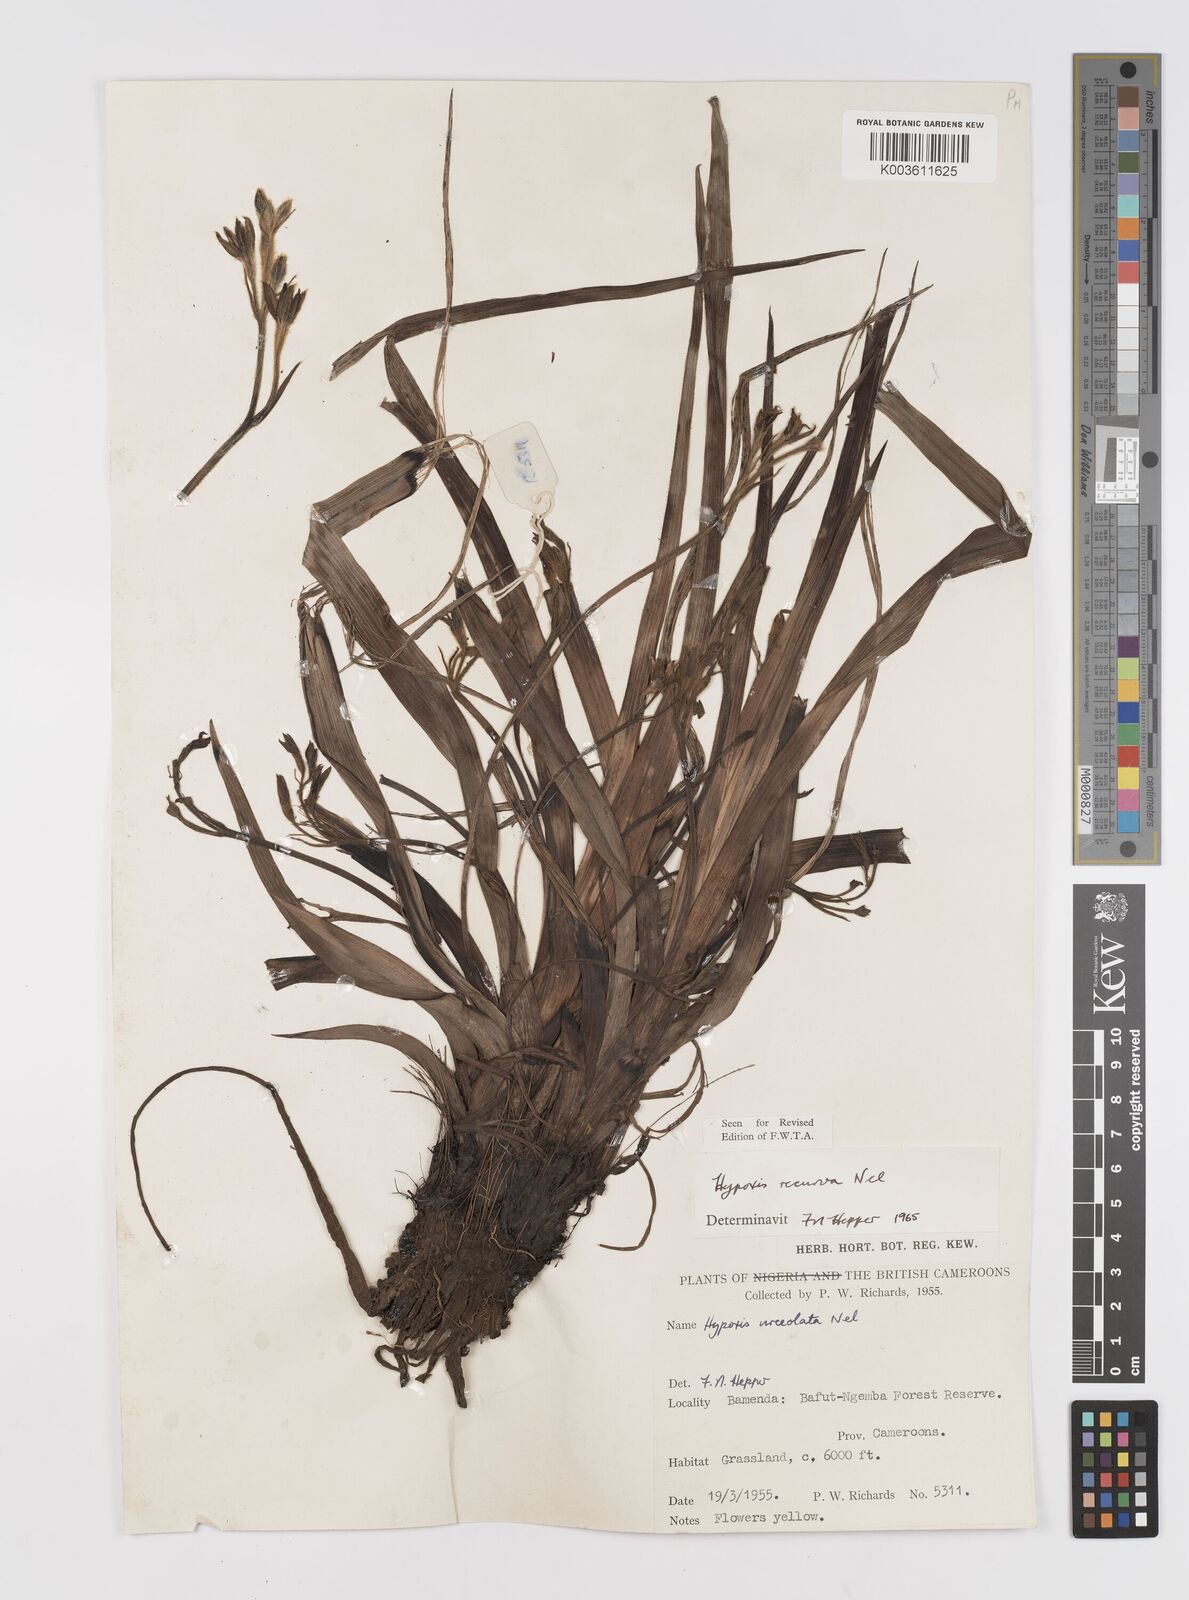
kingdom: Plantae
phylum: Tracheophyta
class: Liliopsida
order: Asparagales
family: Hypoxidaceae
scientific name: Hypoxidaceae
